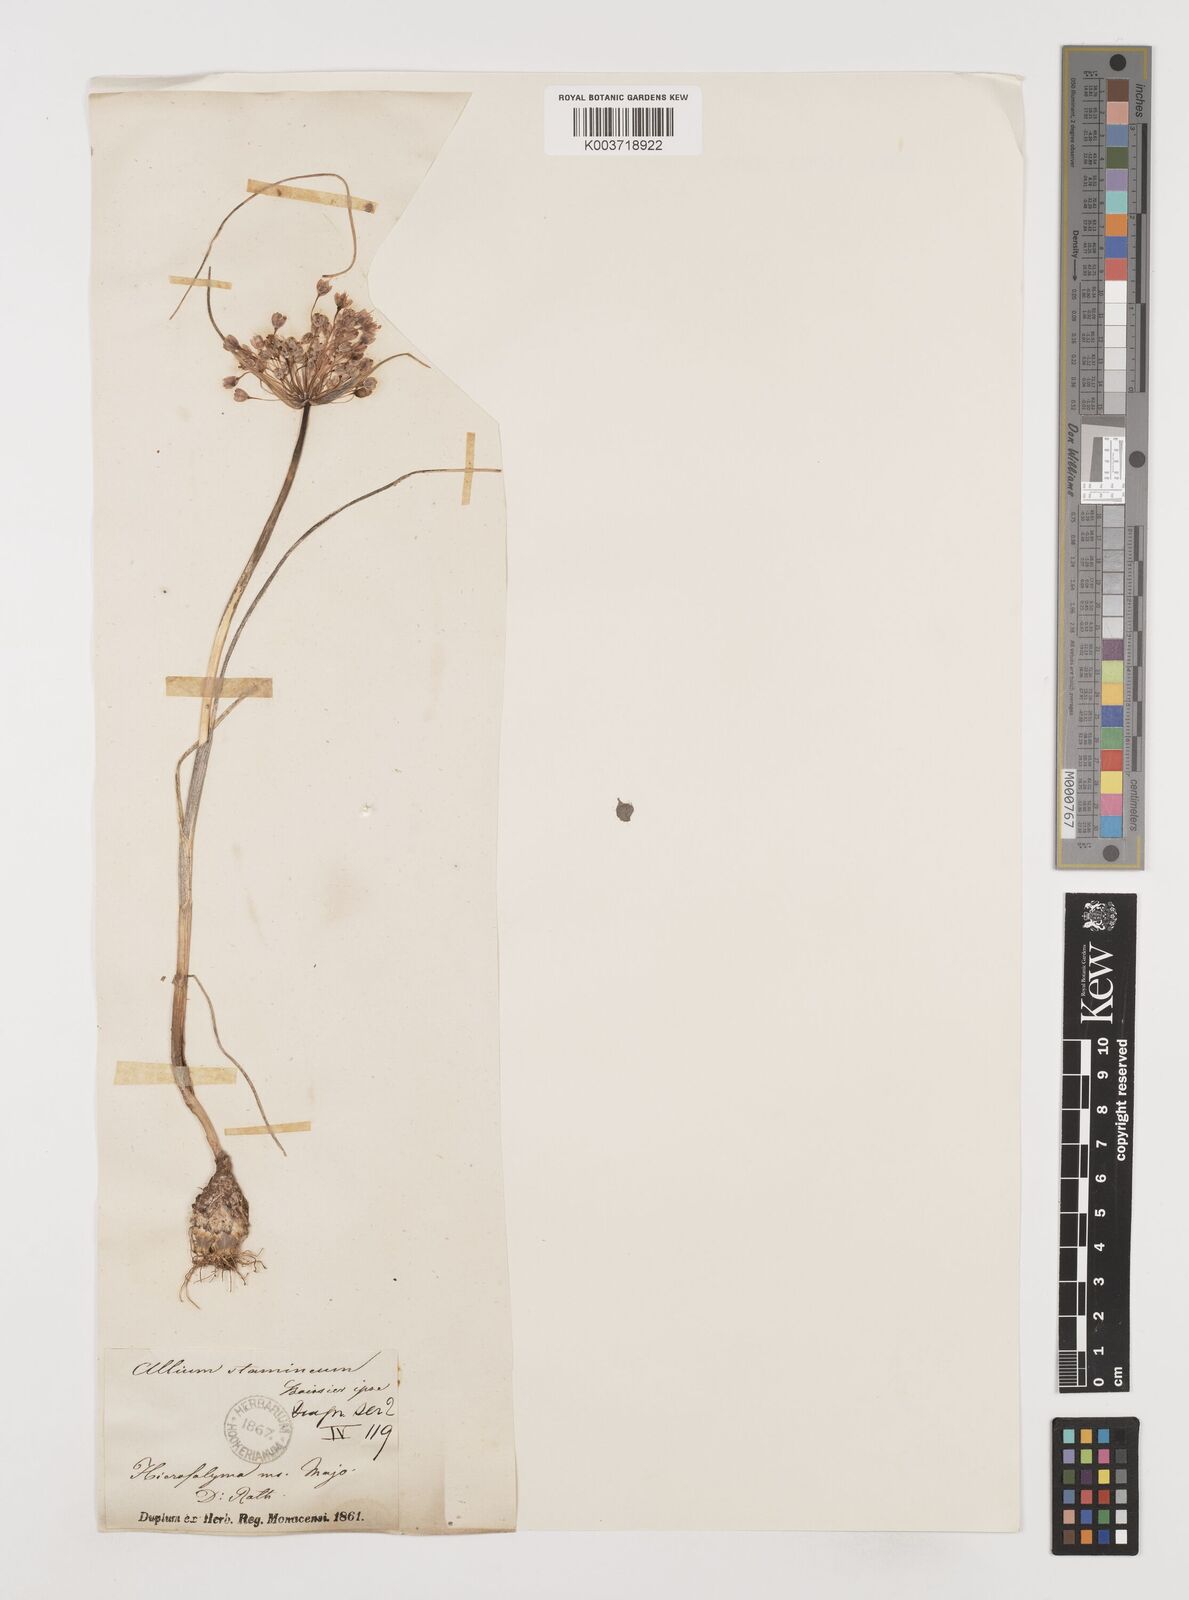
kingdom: Plantae
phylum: Tracheophyta
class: Liliopsida
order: Asparagales
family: Amaryllidaceae
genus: Allium
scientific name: Allium stamineum
